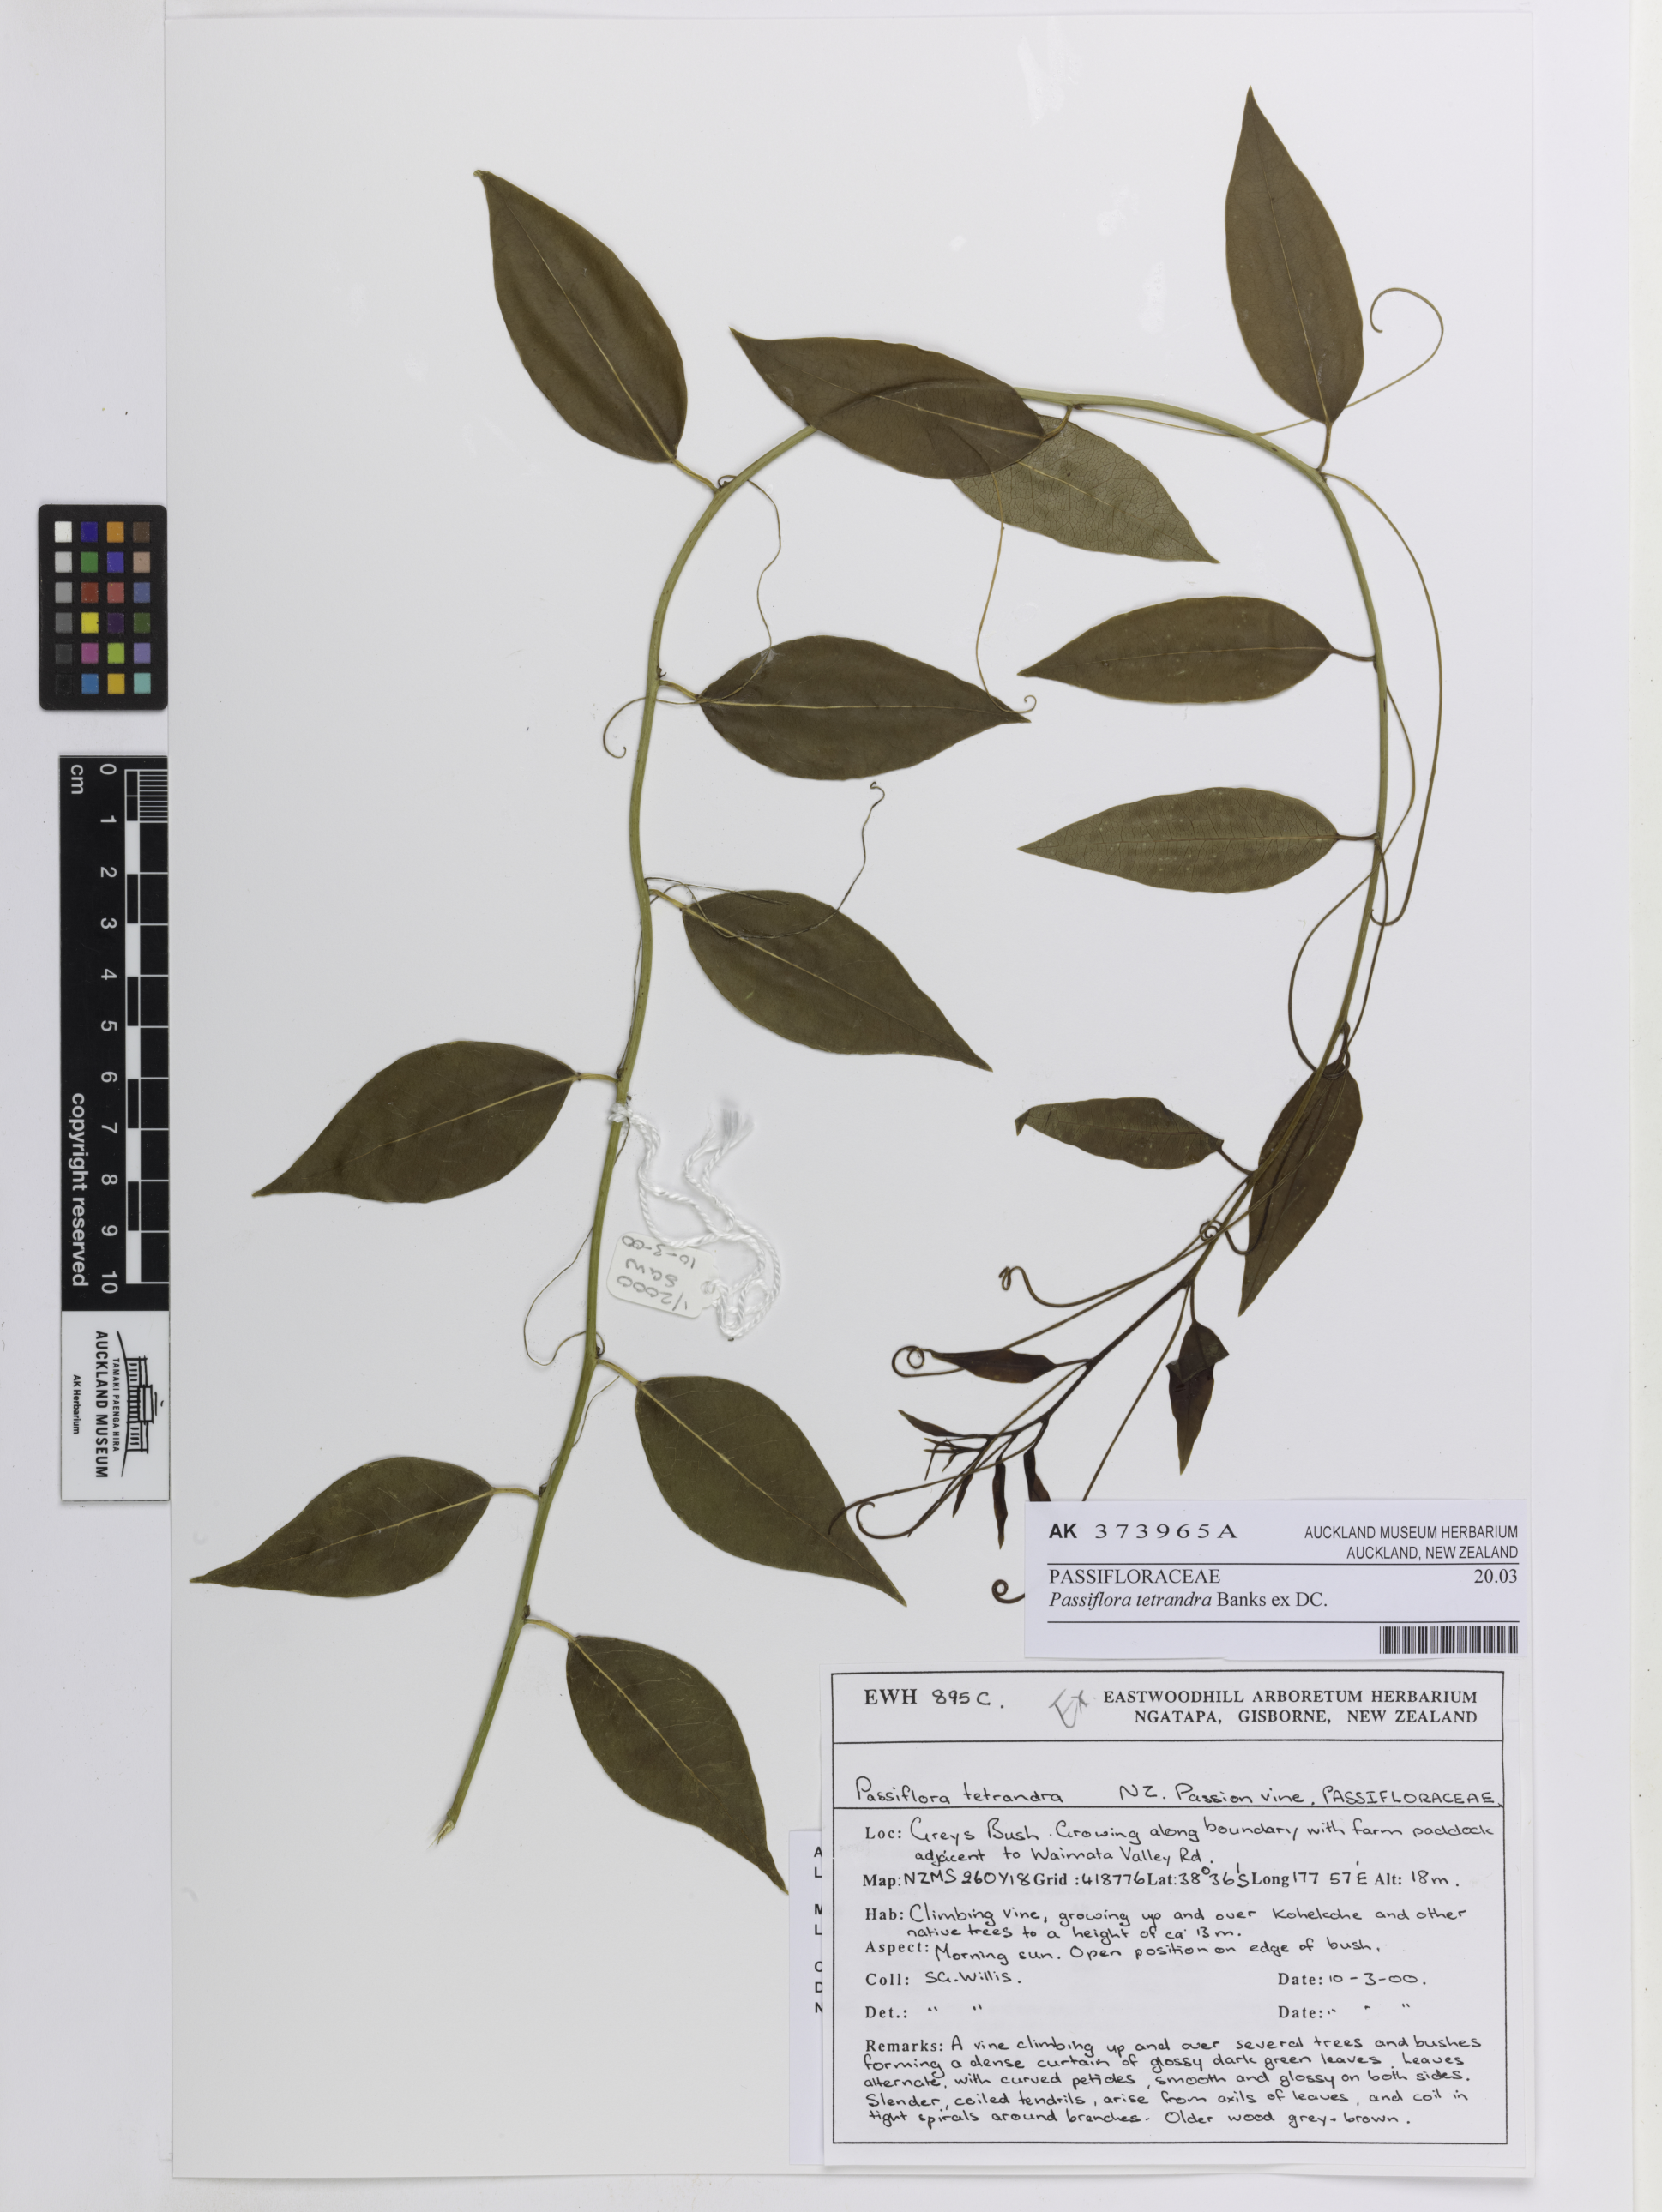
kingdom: Plantae
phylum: Tracheophyta
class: Magnoliopsida
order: Malpighiales
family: Passifloraceae
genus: Passiflora
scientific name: Passiflora tetrandra
